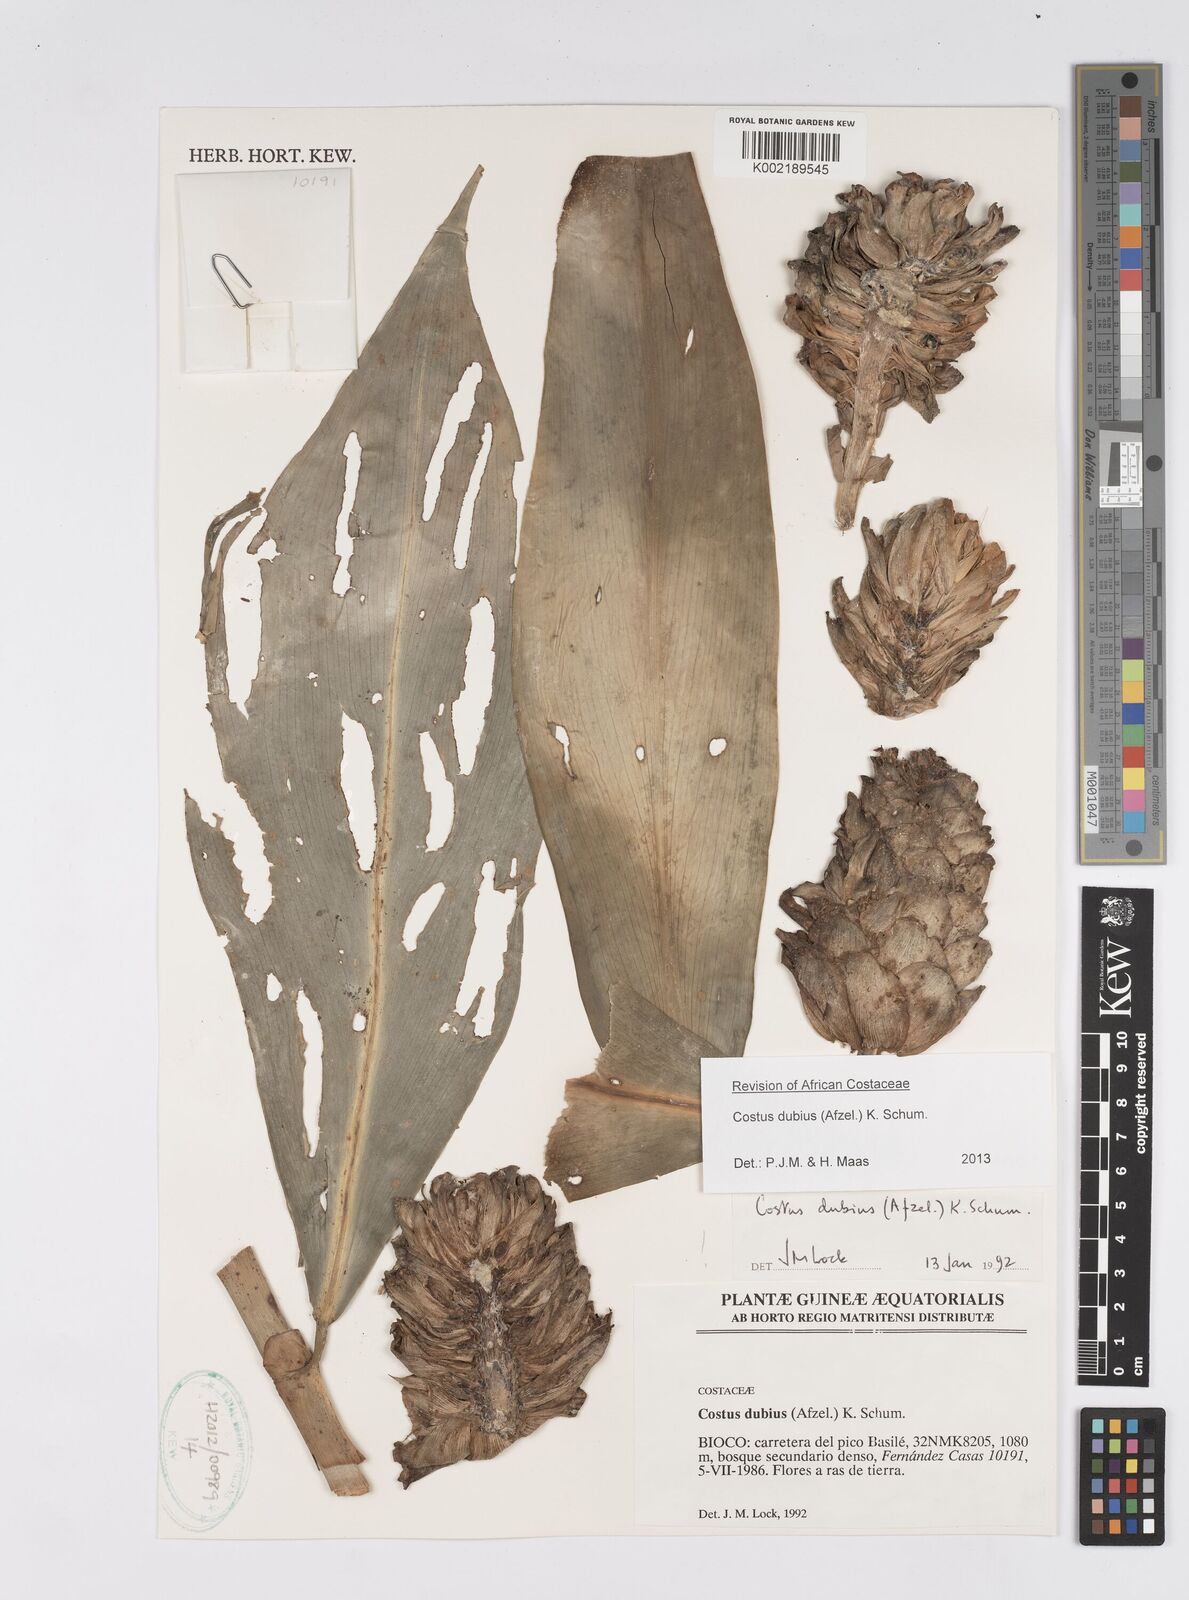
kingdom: Plantae
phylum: Tracheophyta
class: Liliopsida
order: Zingiberales
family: Costaceae
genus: Costus
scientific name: Costus dubius
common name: Costus
